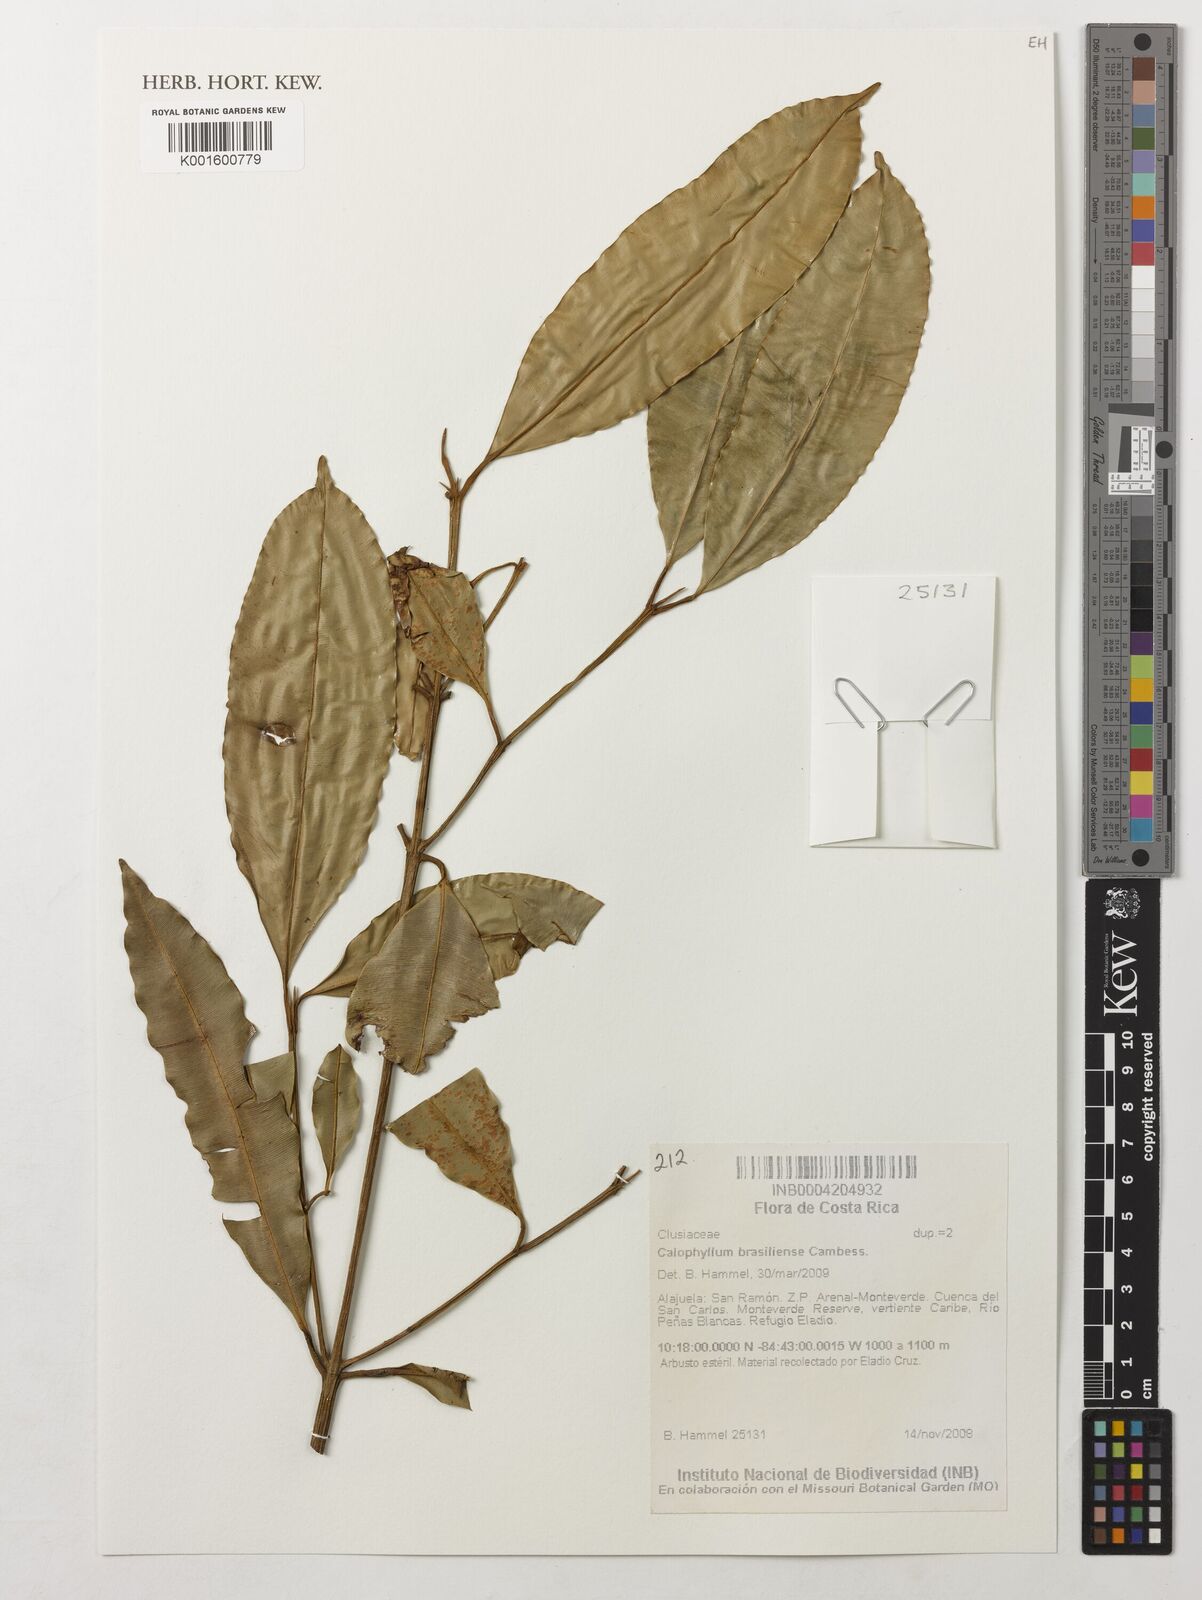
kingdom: Plantae
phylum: Tracheophyta
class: Magnoliopsida
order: Malpighiales
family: Calophyllaceae
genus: Calophyllum
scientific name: Calophyllum brasiliense
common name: Santa maria
